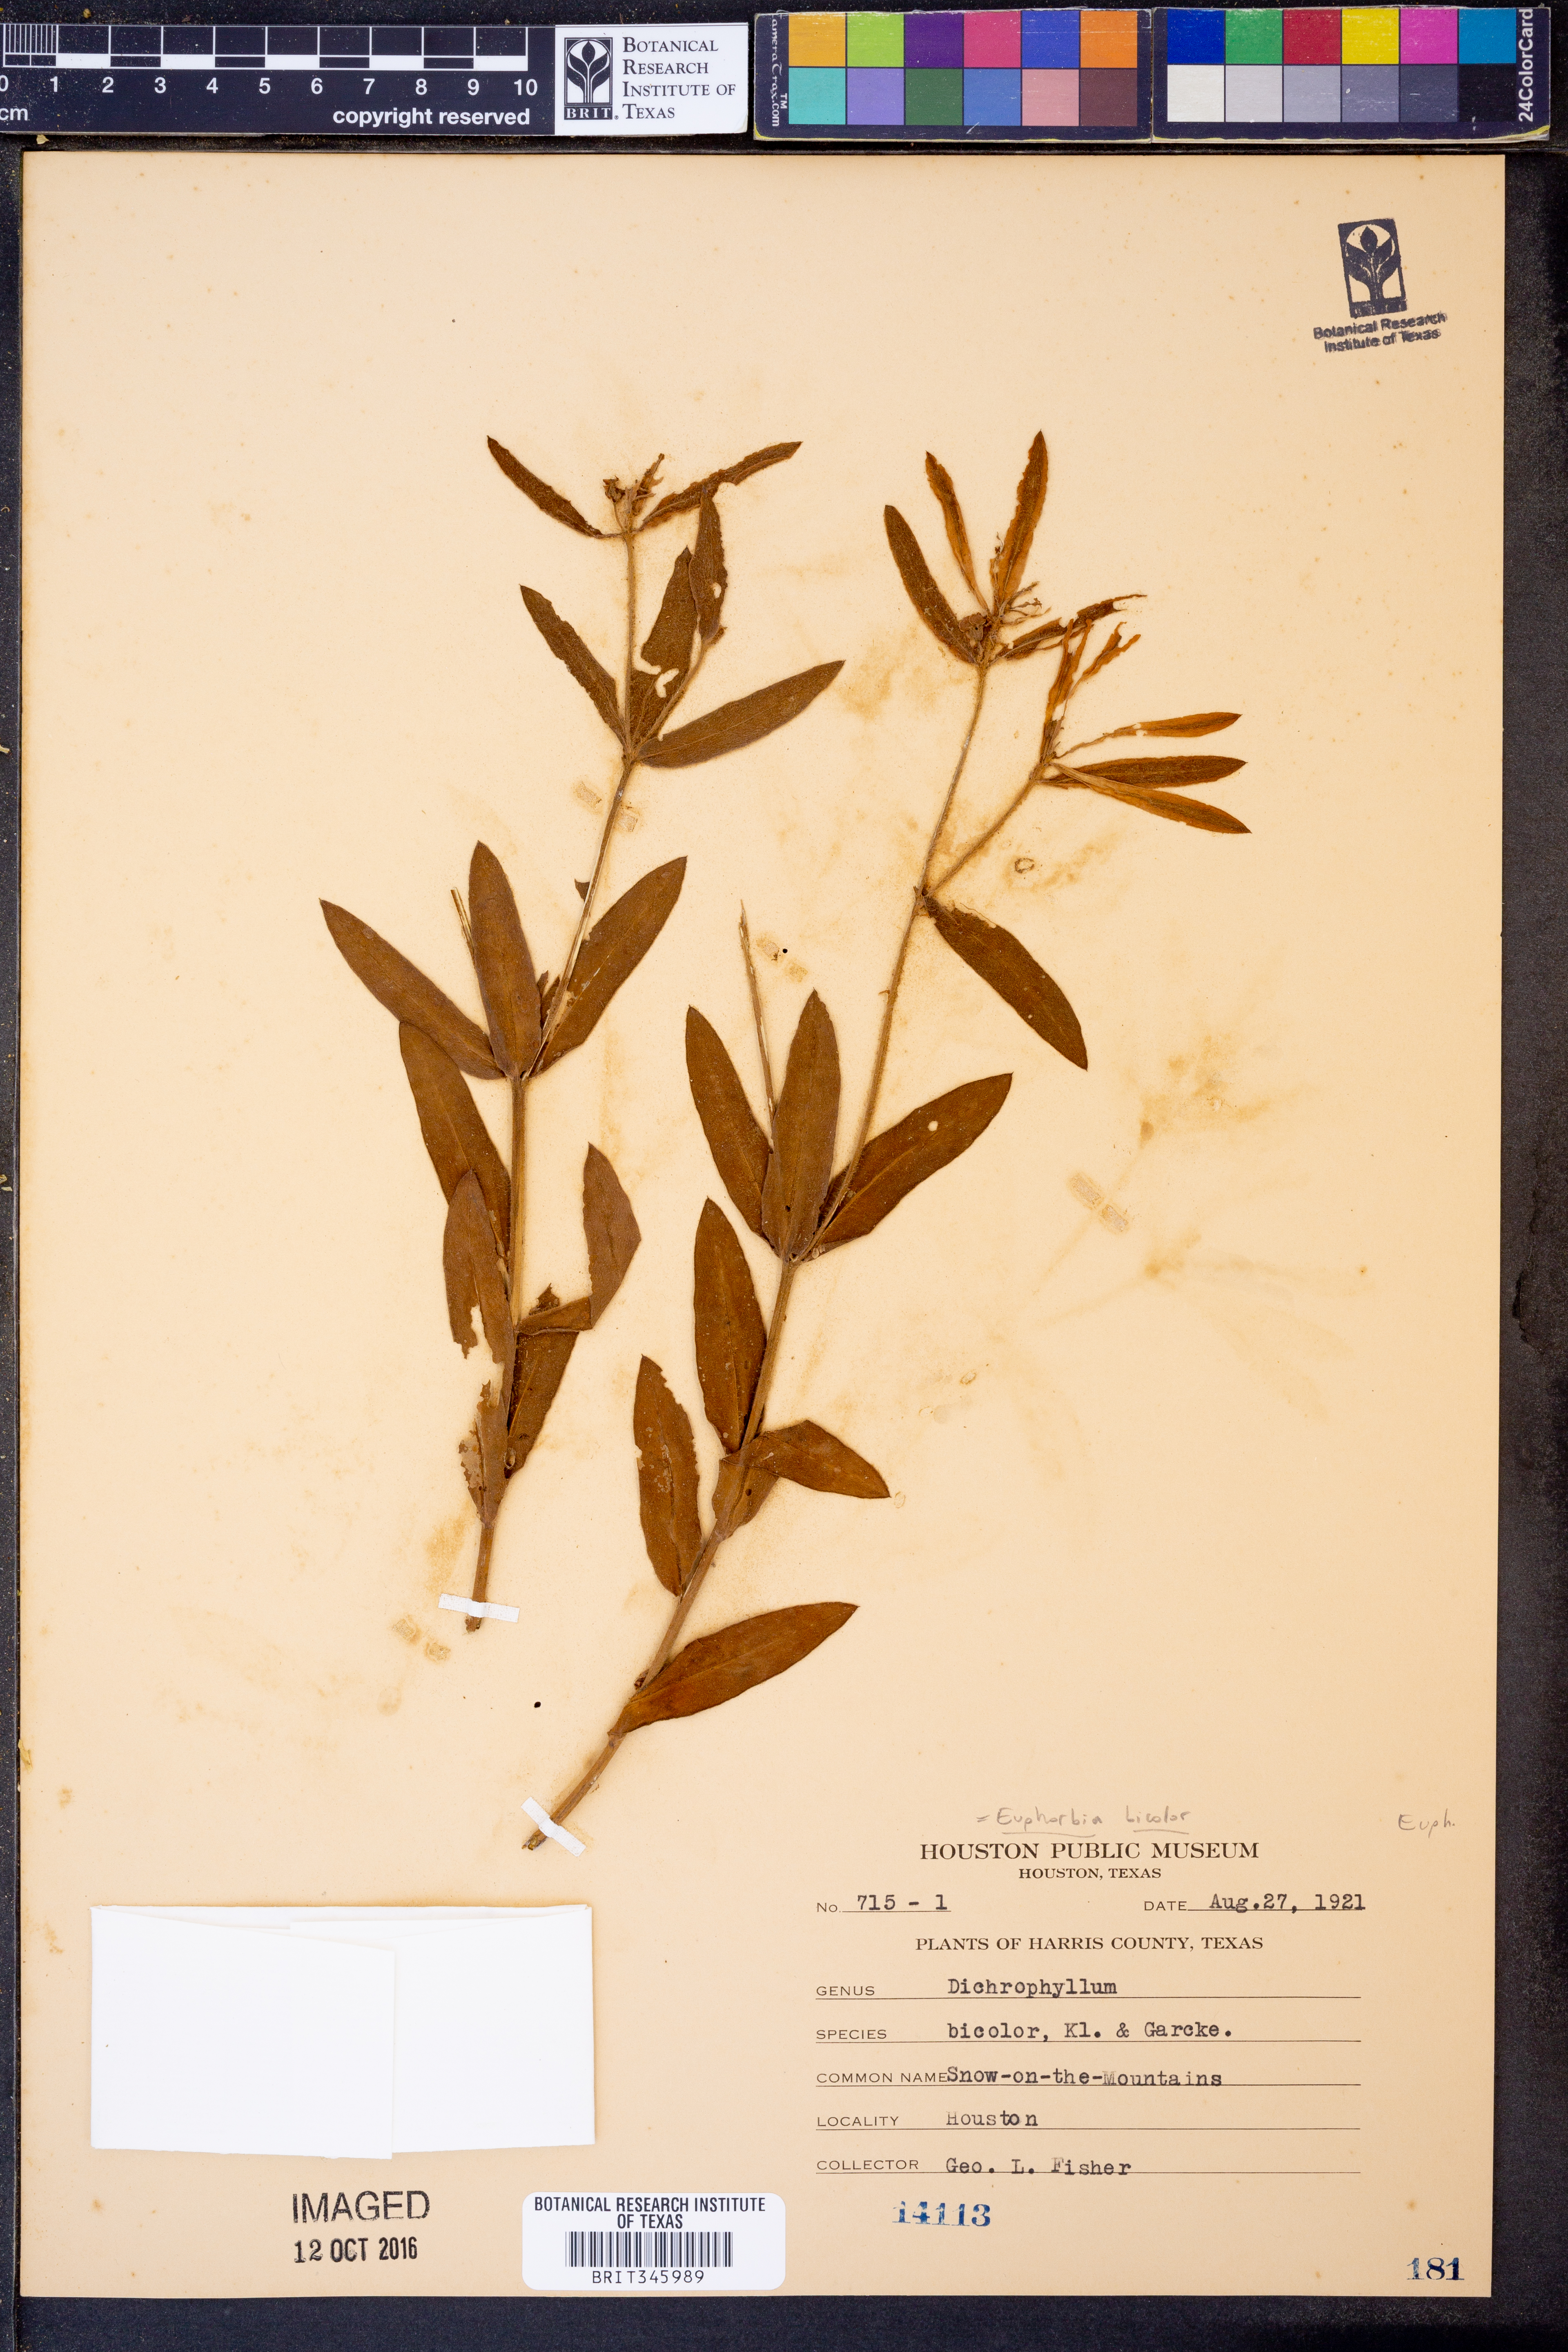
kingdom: Plantae
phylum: Tracheophyta
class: Magnoliopsida
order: Malpighiales
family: Euphorbiaceae
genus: Euphorbia
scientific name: Euphorbia bicolor
